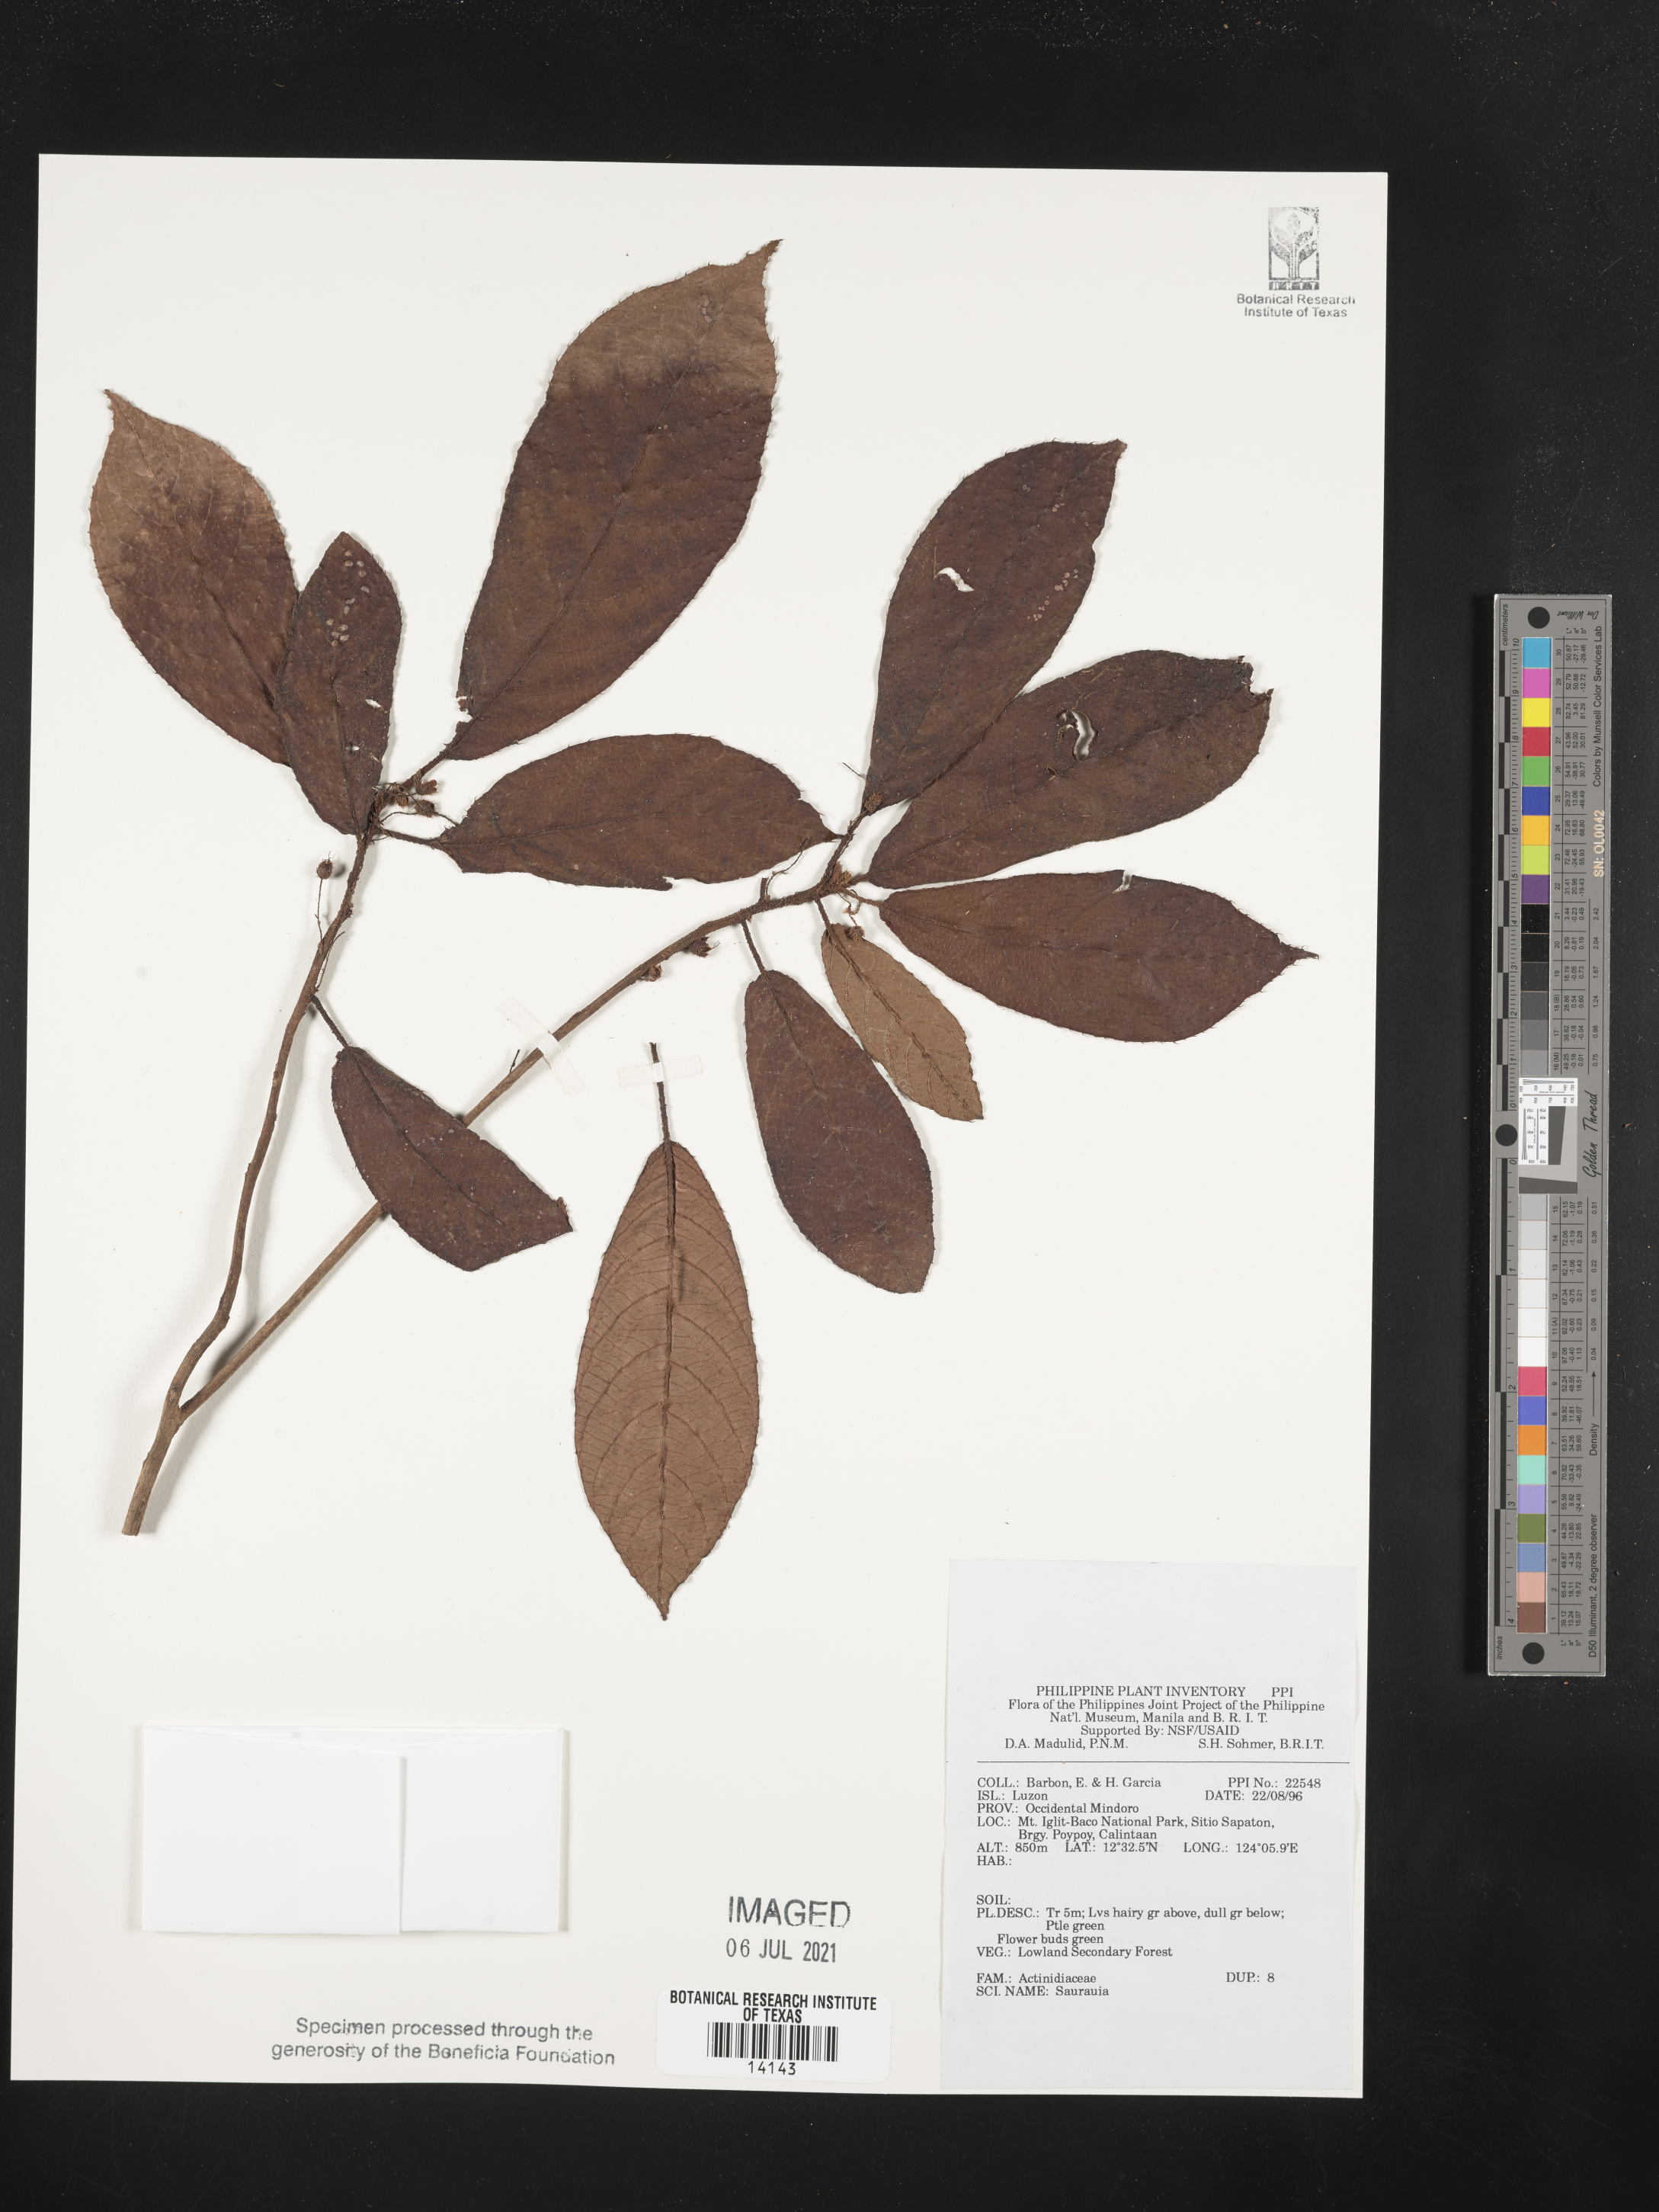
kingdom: Plantae
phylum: Tracheophyta
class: Magnoliopsida
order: Ericales
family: Actinidiaceae
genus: Saurauia
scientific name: Saurauia
